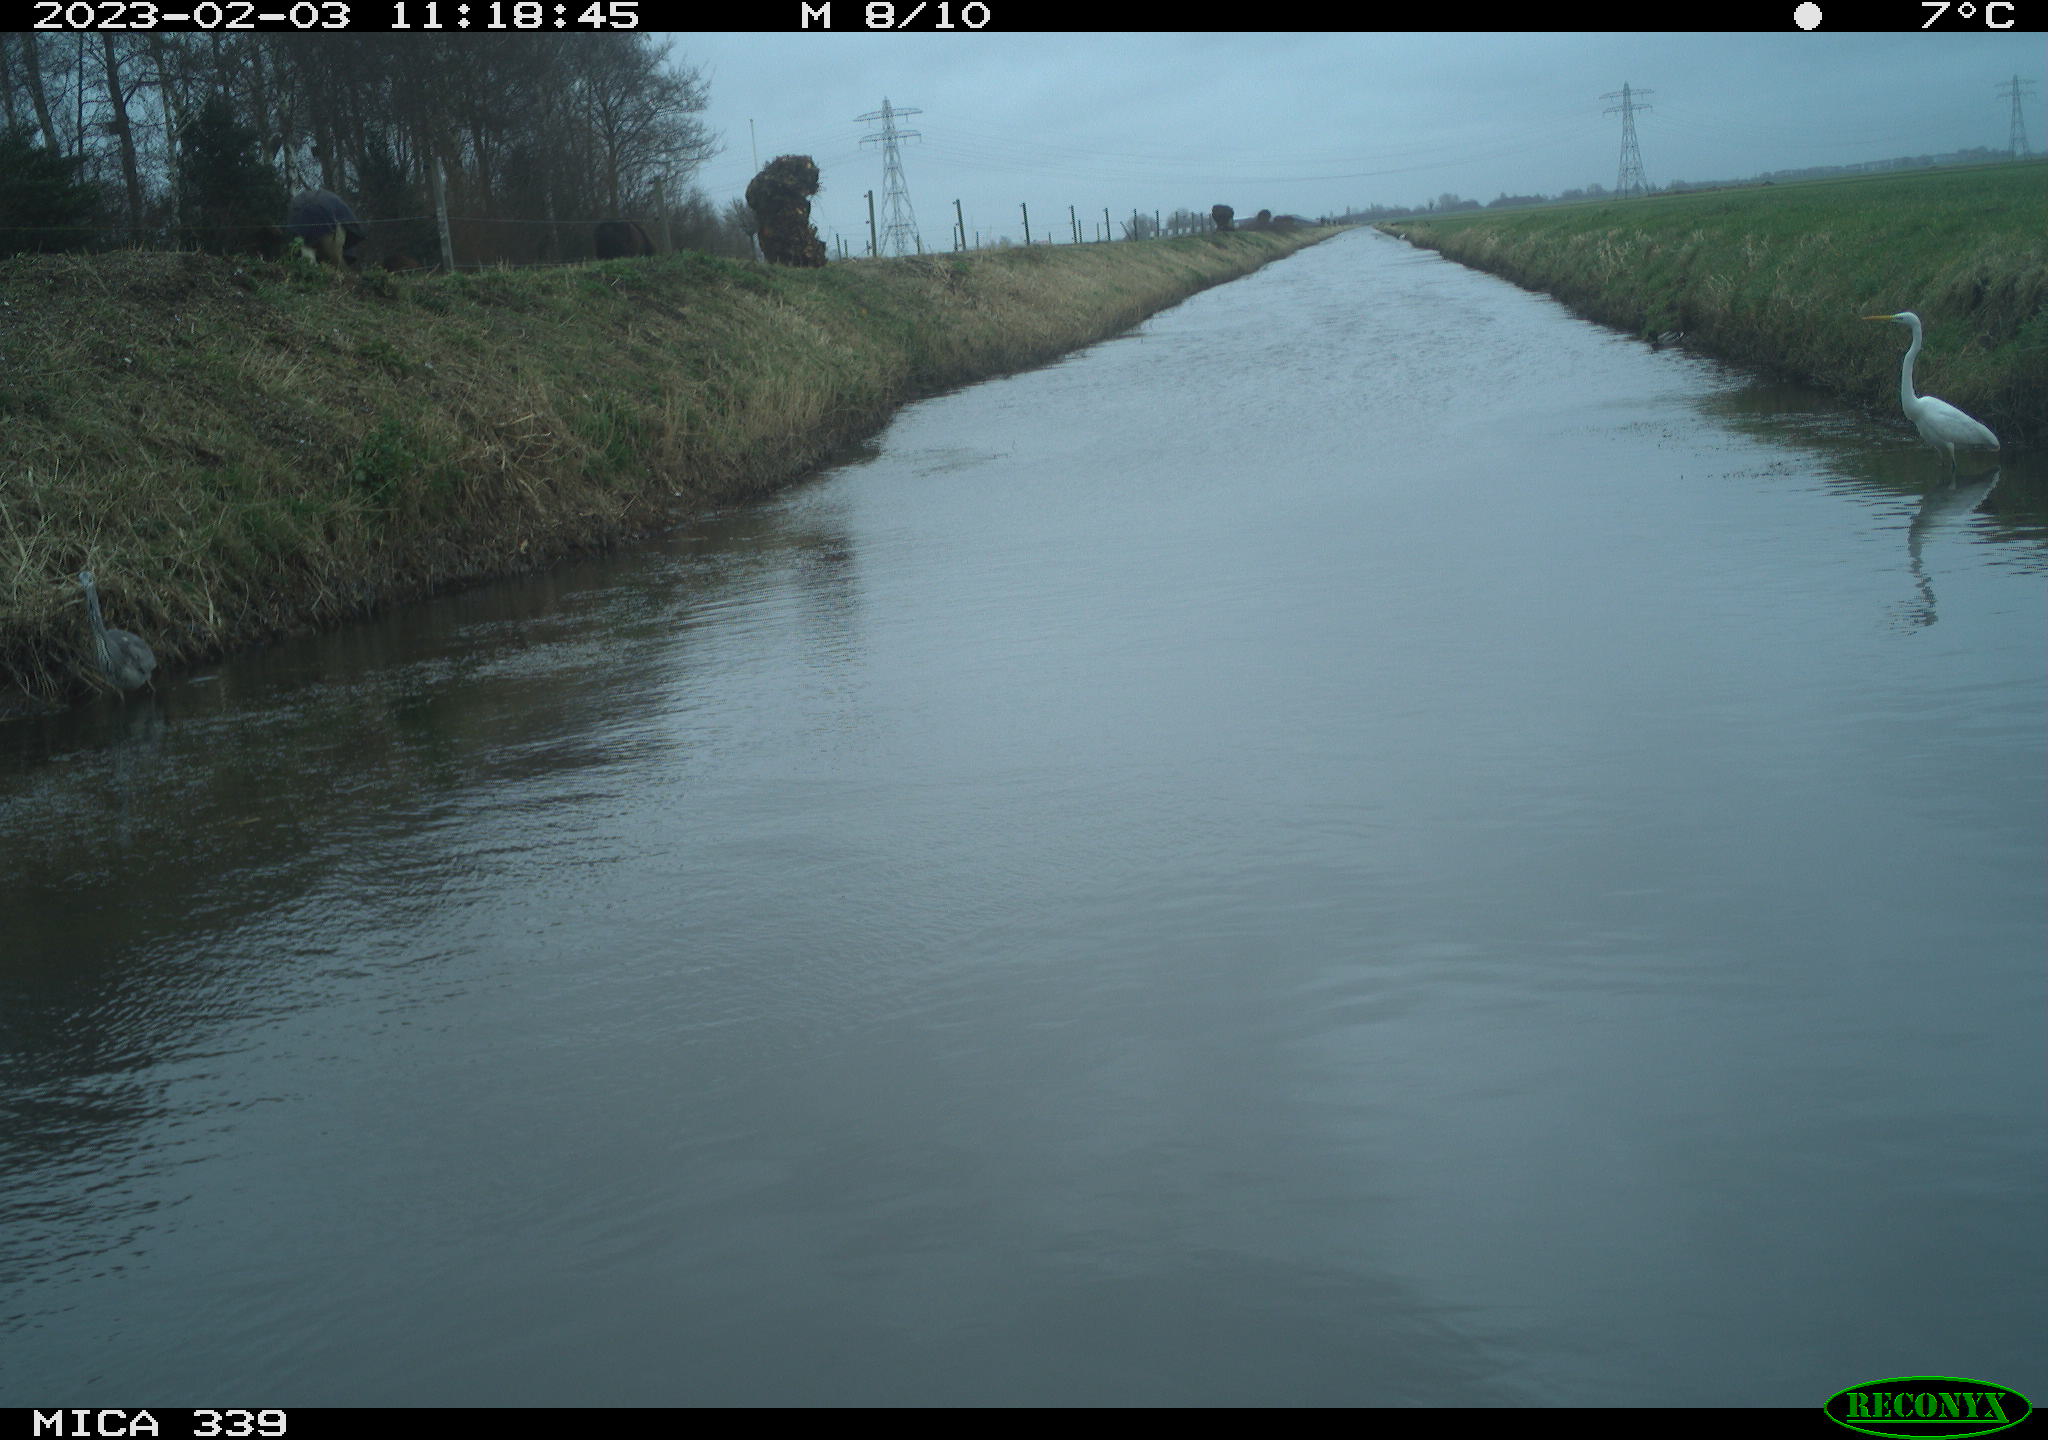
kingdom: Animalia
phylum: Chordata
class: Aves
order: Pelecaniformes
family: Ardeidae
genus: Ardea
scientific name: Ardea cinerea
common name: Grey heron
